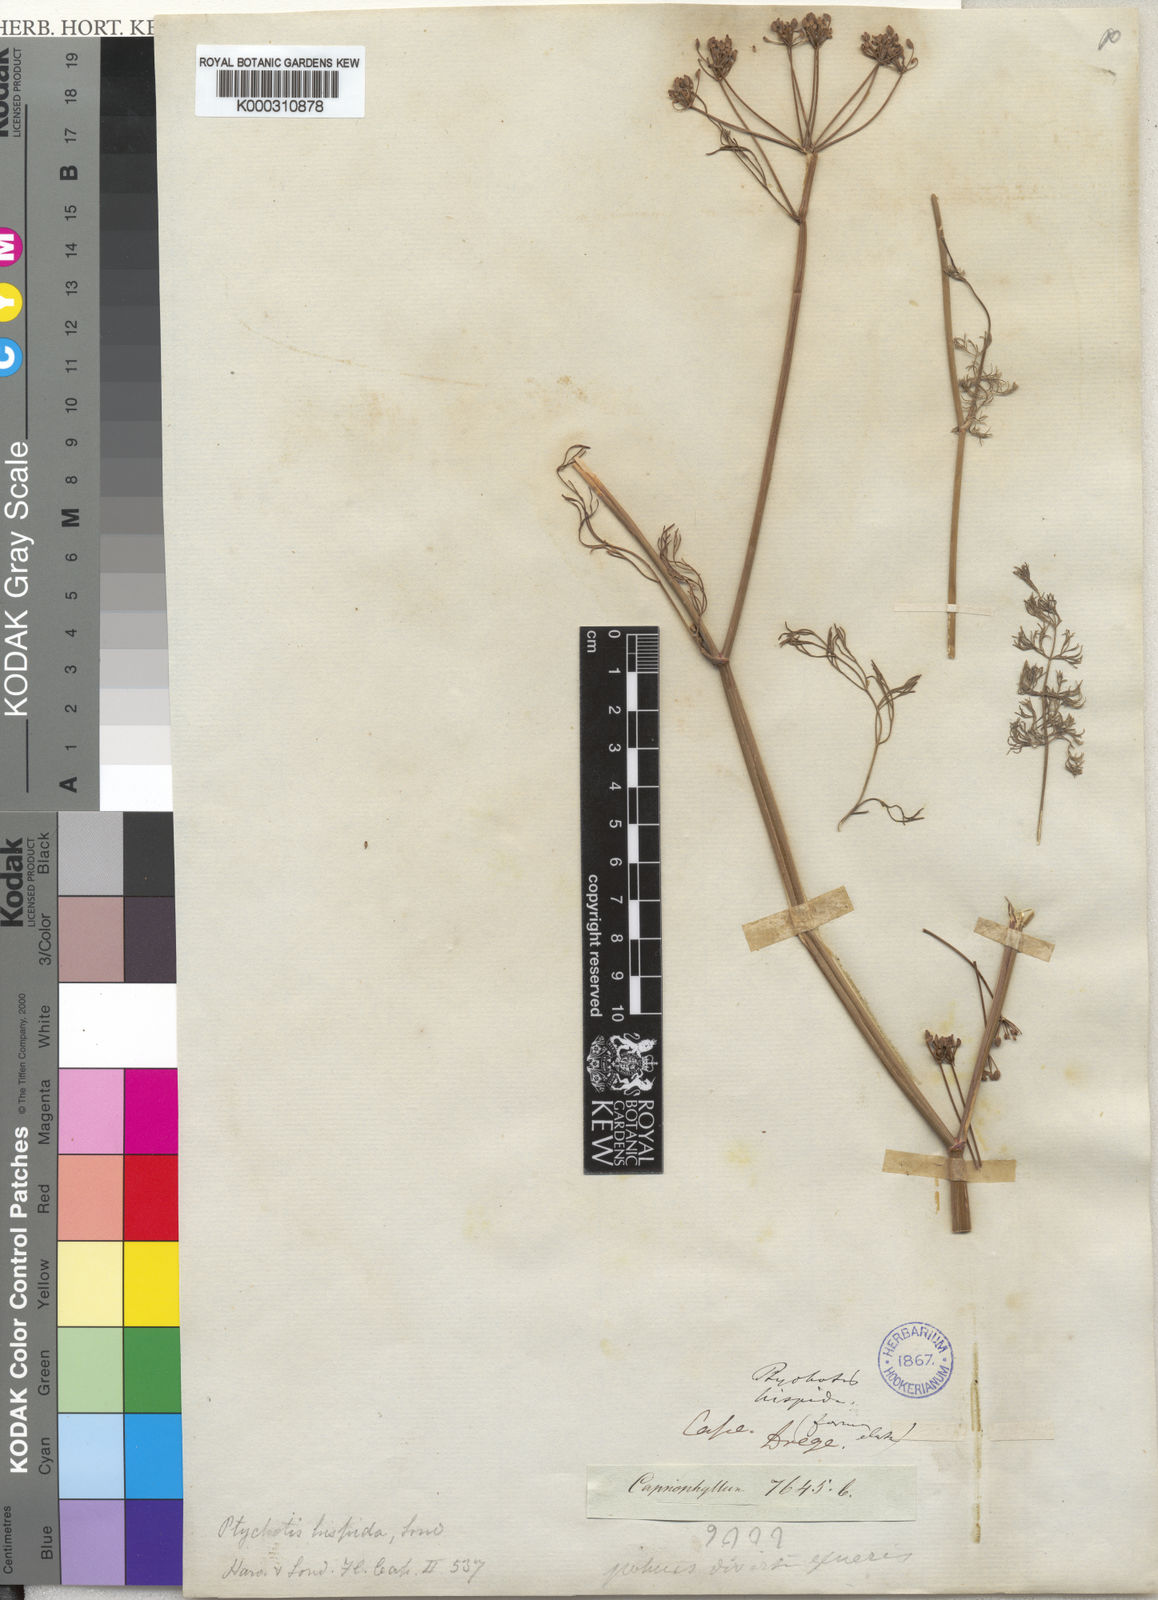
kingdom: Plantae
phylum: Tracheophyta
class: Magnoliopsida
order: Apiales
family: Apiaceae
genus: Dasispermum
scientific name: Dasispermum hispidum
